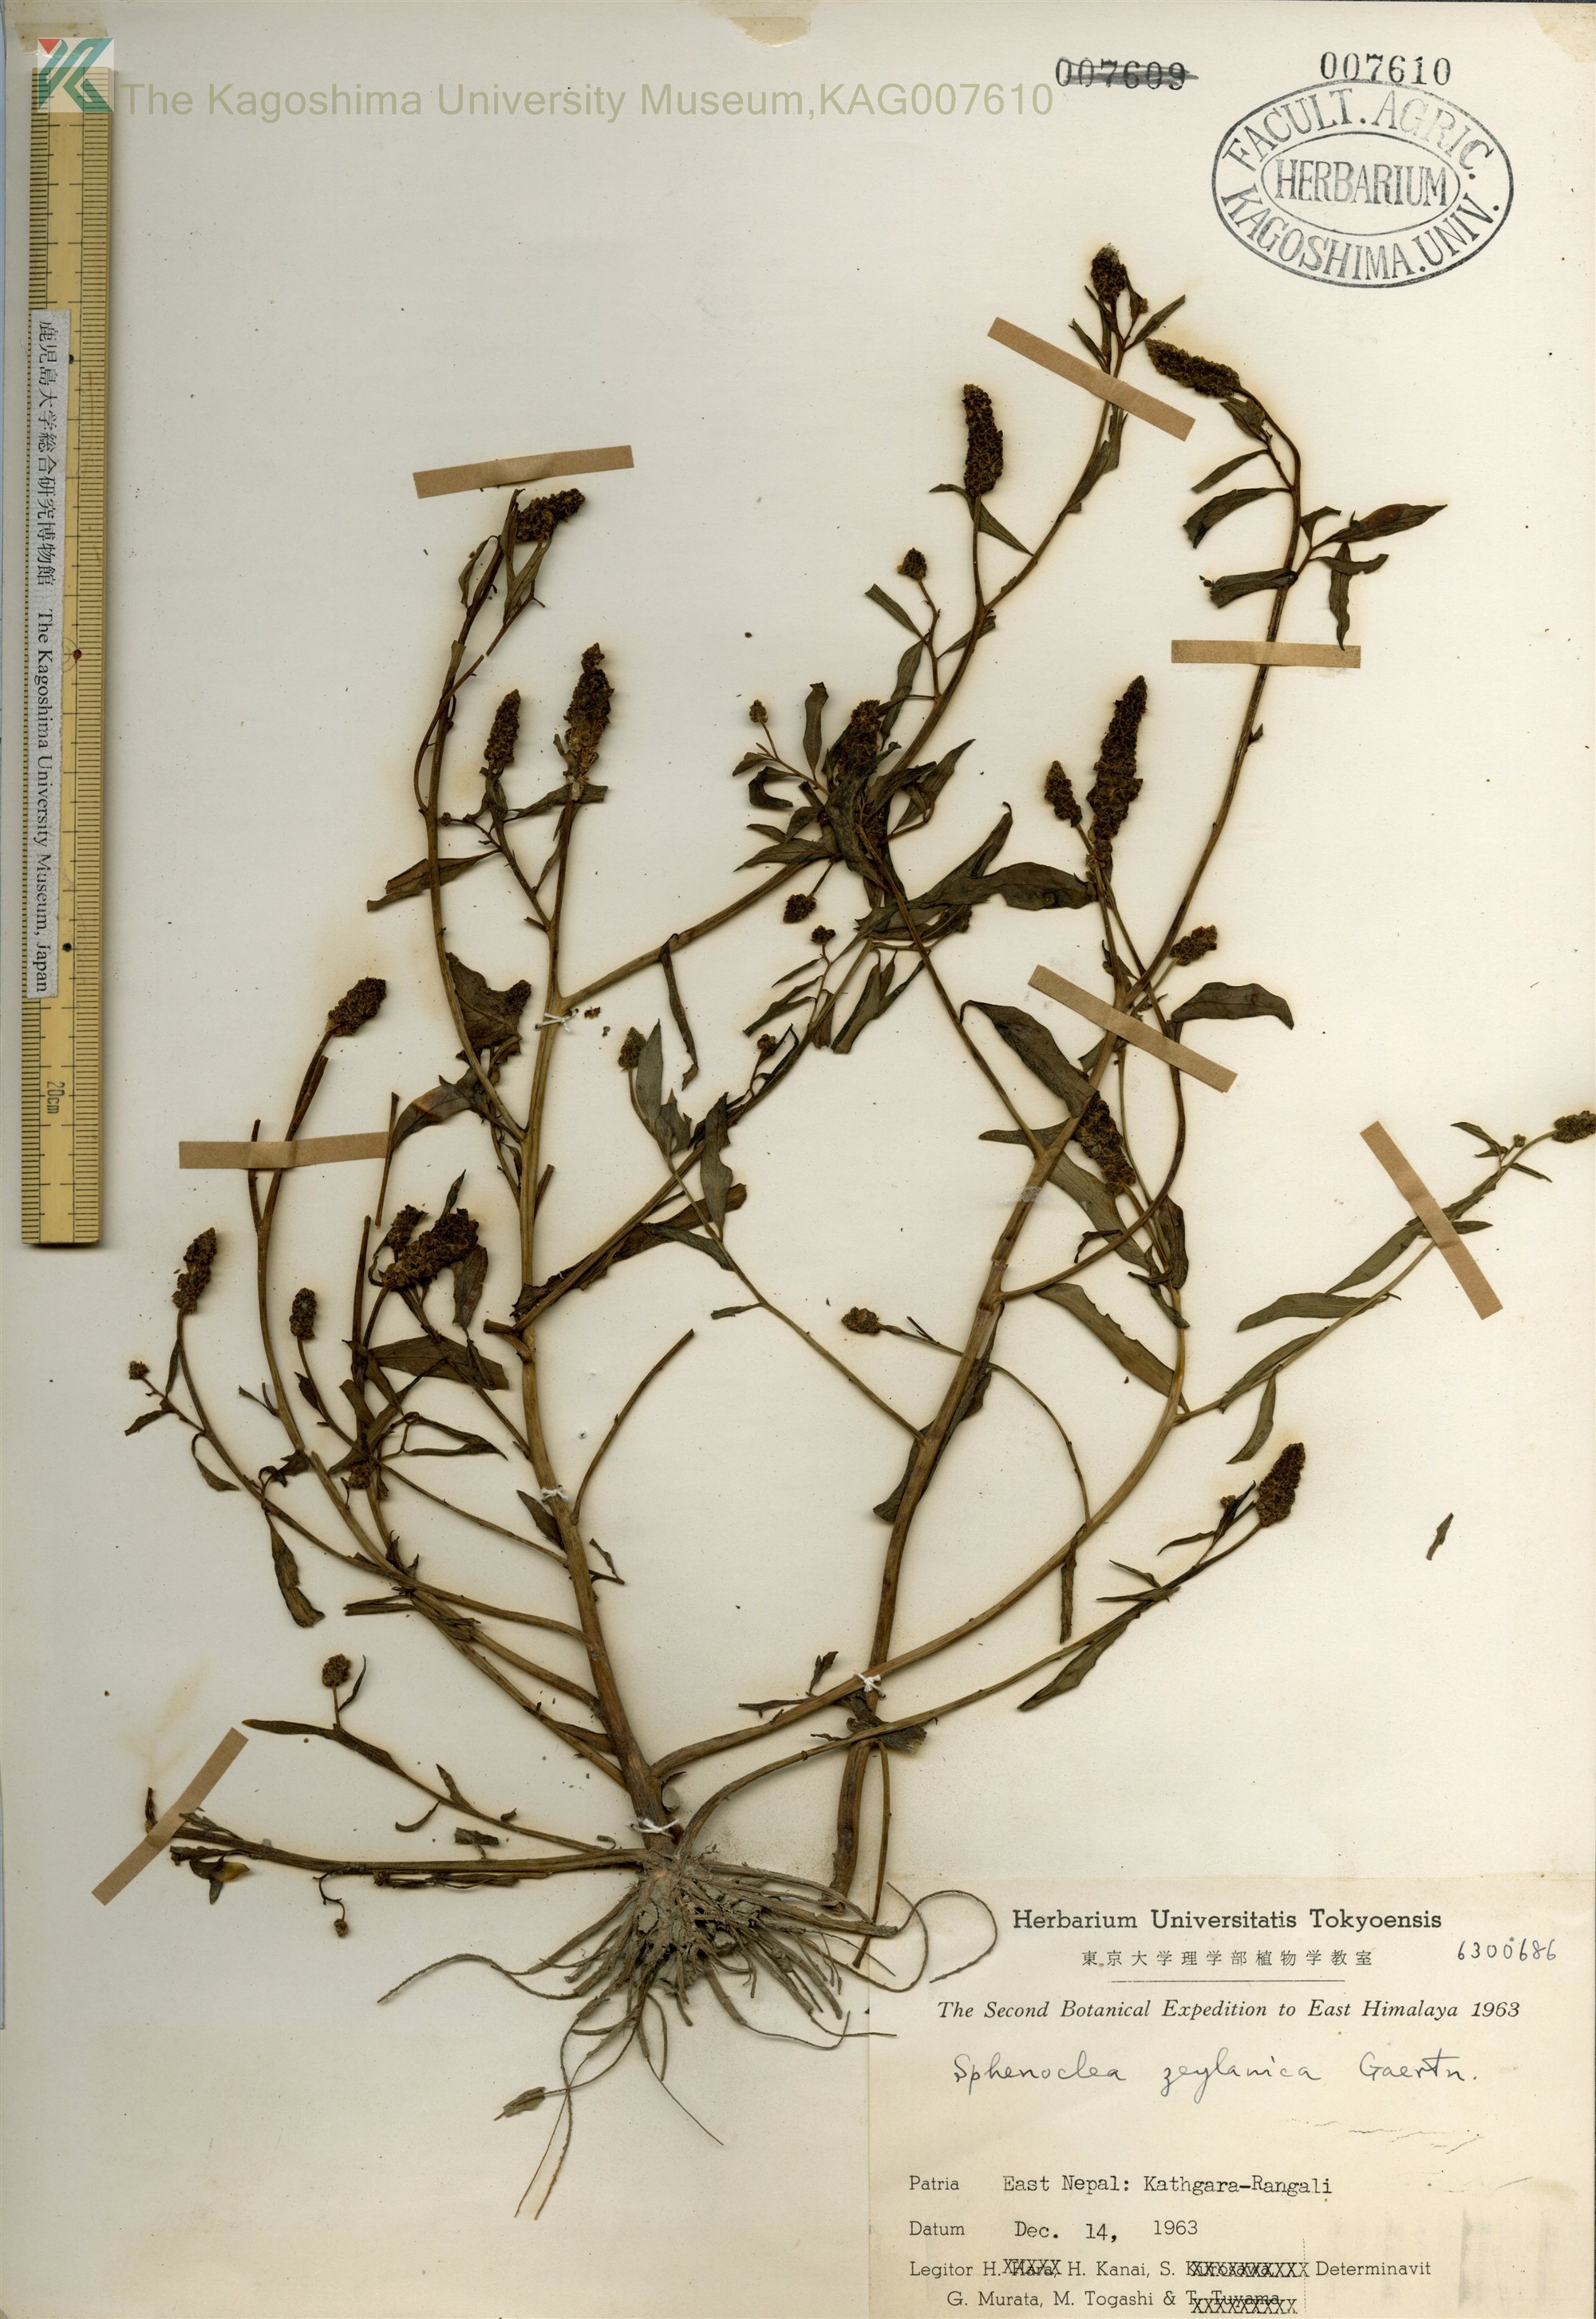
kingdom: Plantae
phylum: Tracheophyta
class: Magnoliopsida
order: Solanales
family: Sphenocleaceae
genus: Sphenoclea
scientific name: Sphenoclea zeylanica
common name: Chickenspike
